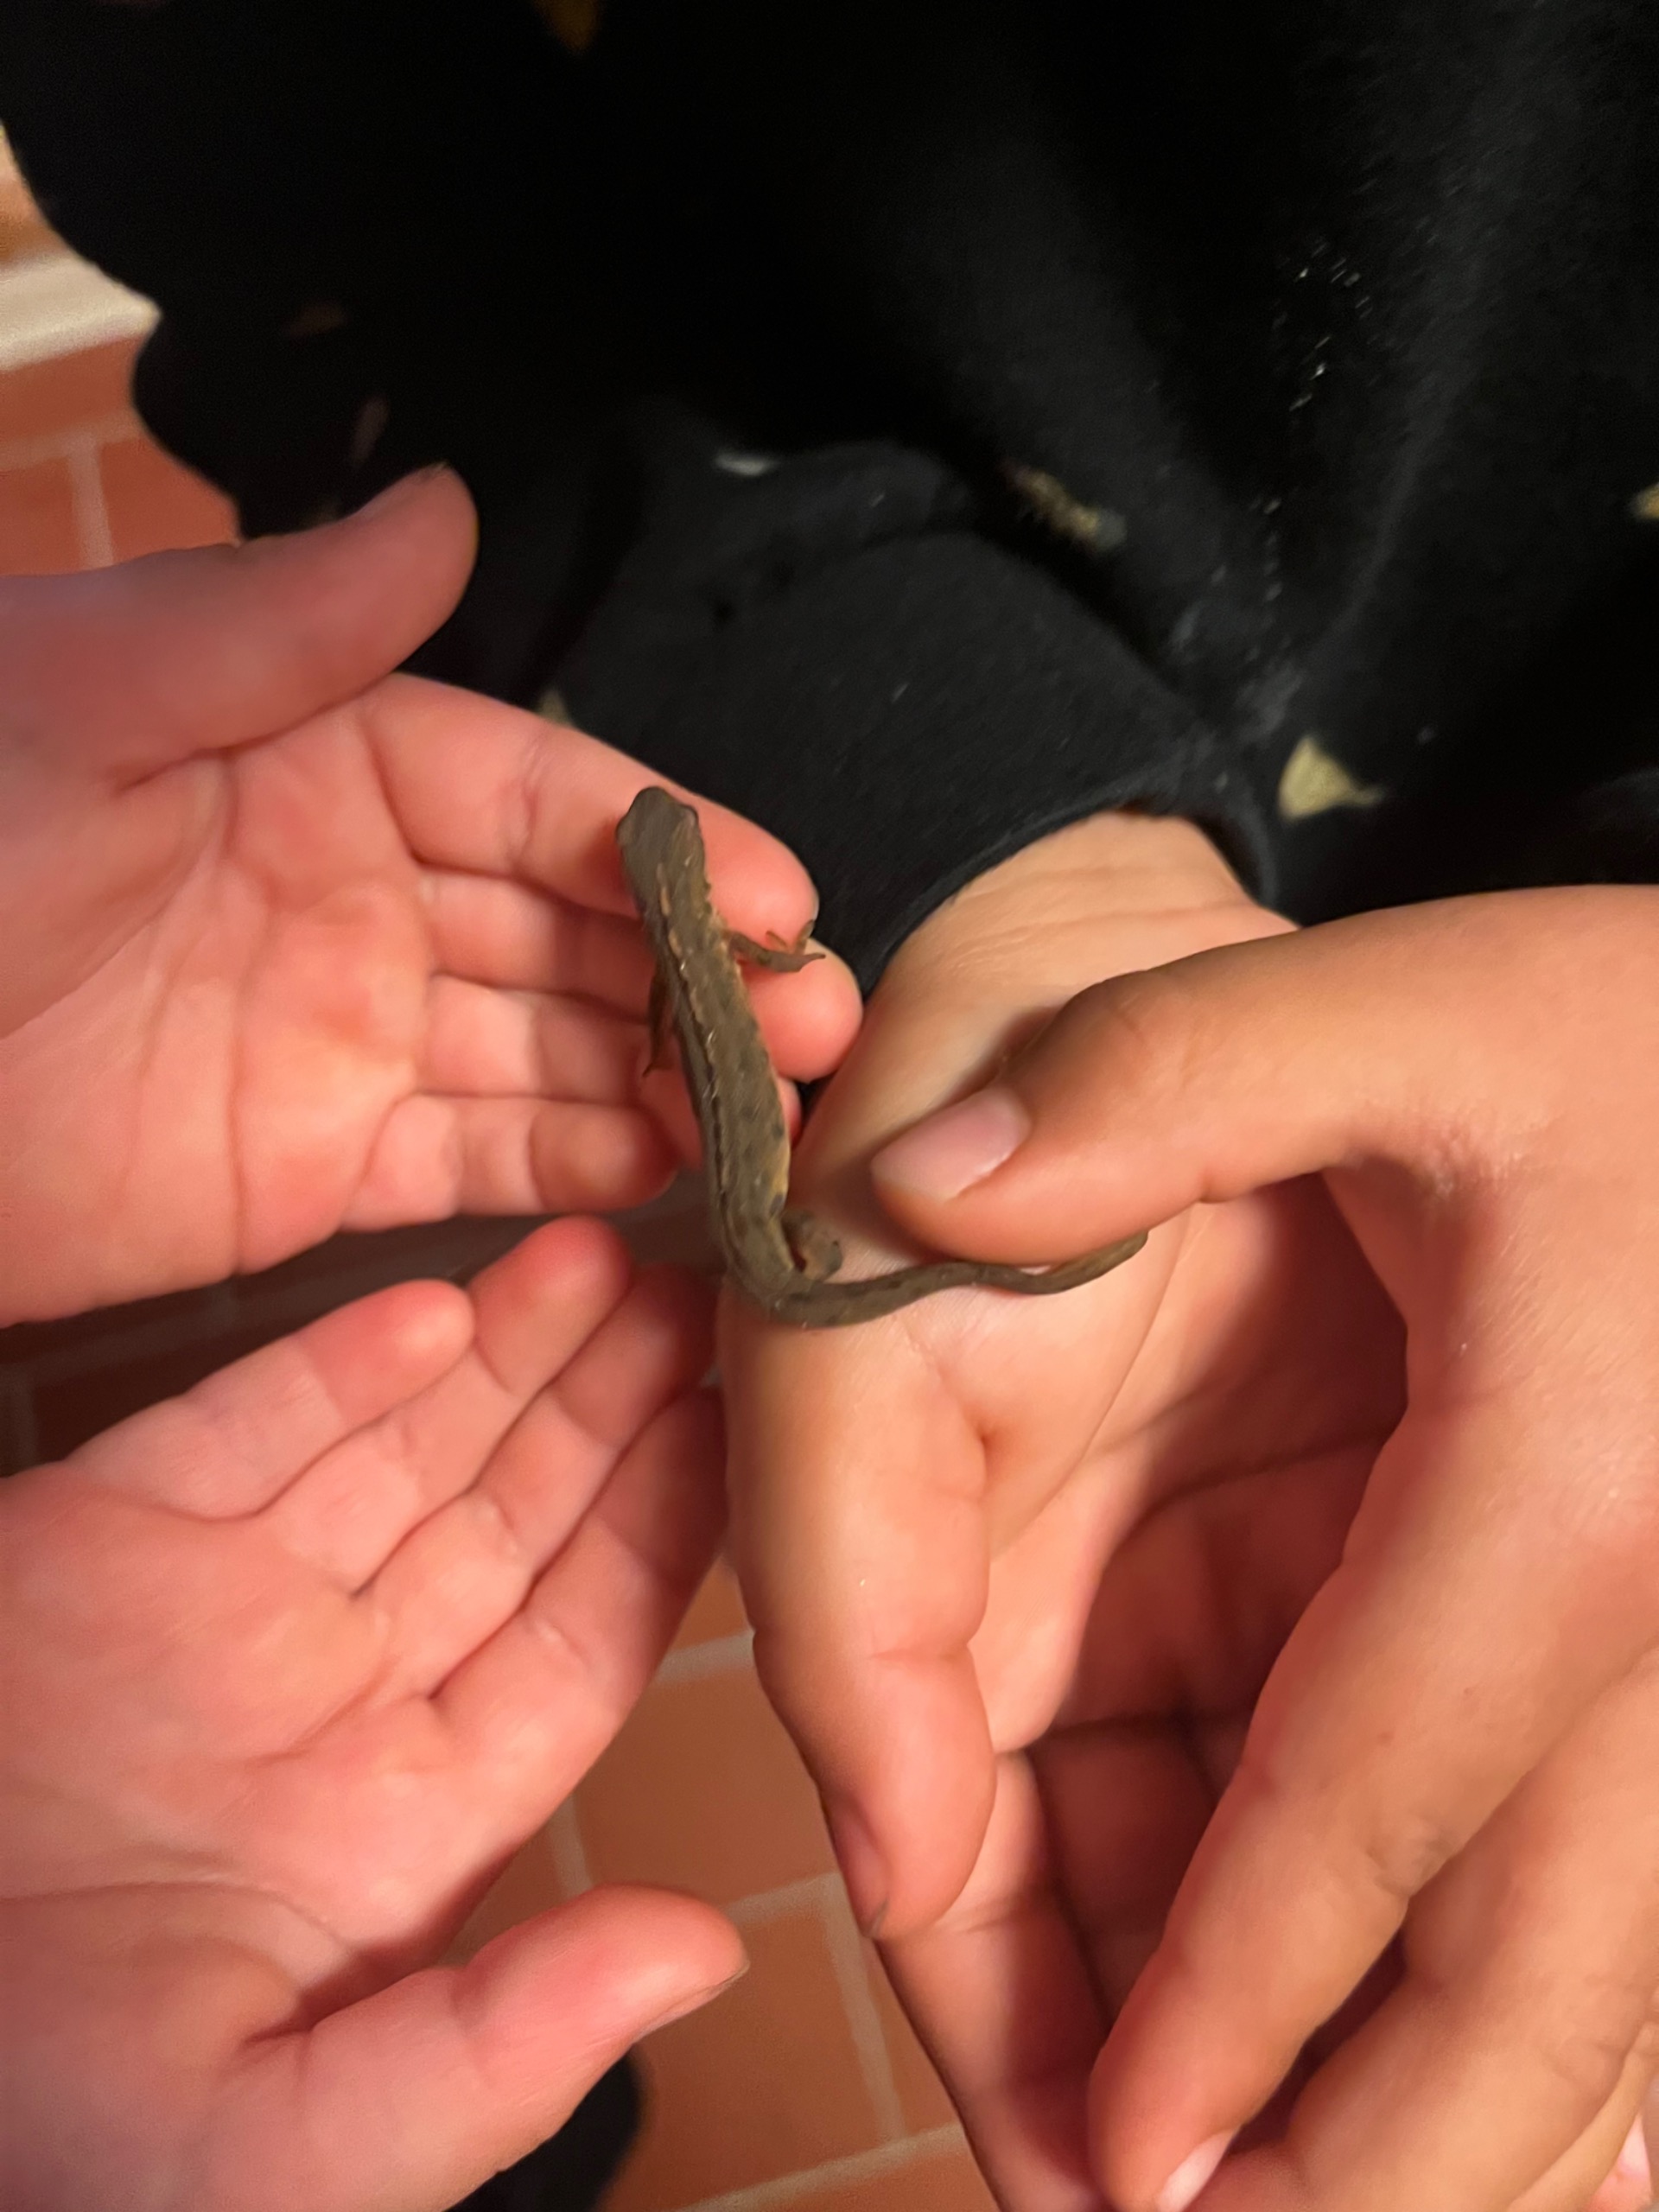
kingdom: Animalia
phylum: Chordata
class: Amphibia
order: Caudata
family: Salamandridae
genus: Lissotriton
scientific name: Lissotriton vulgaris
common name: Lille vandsalamander
